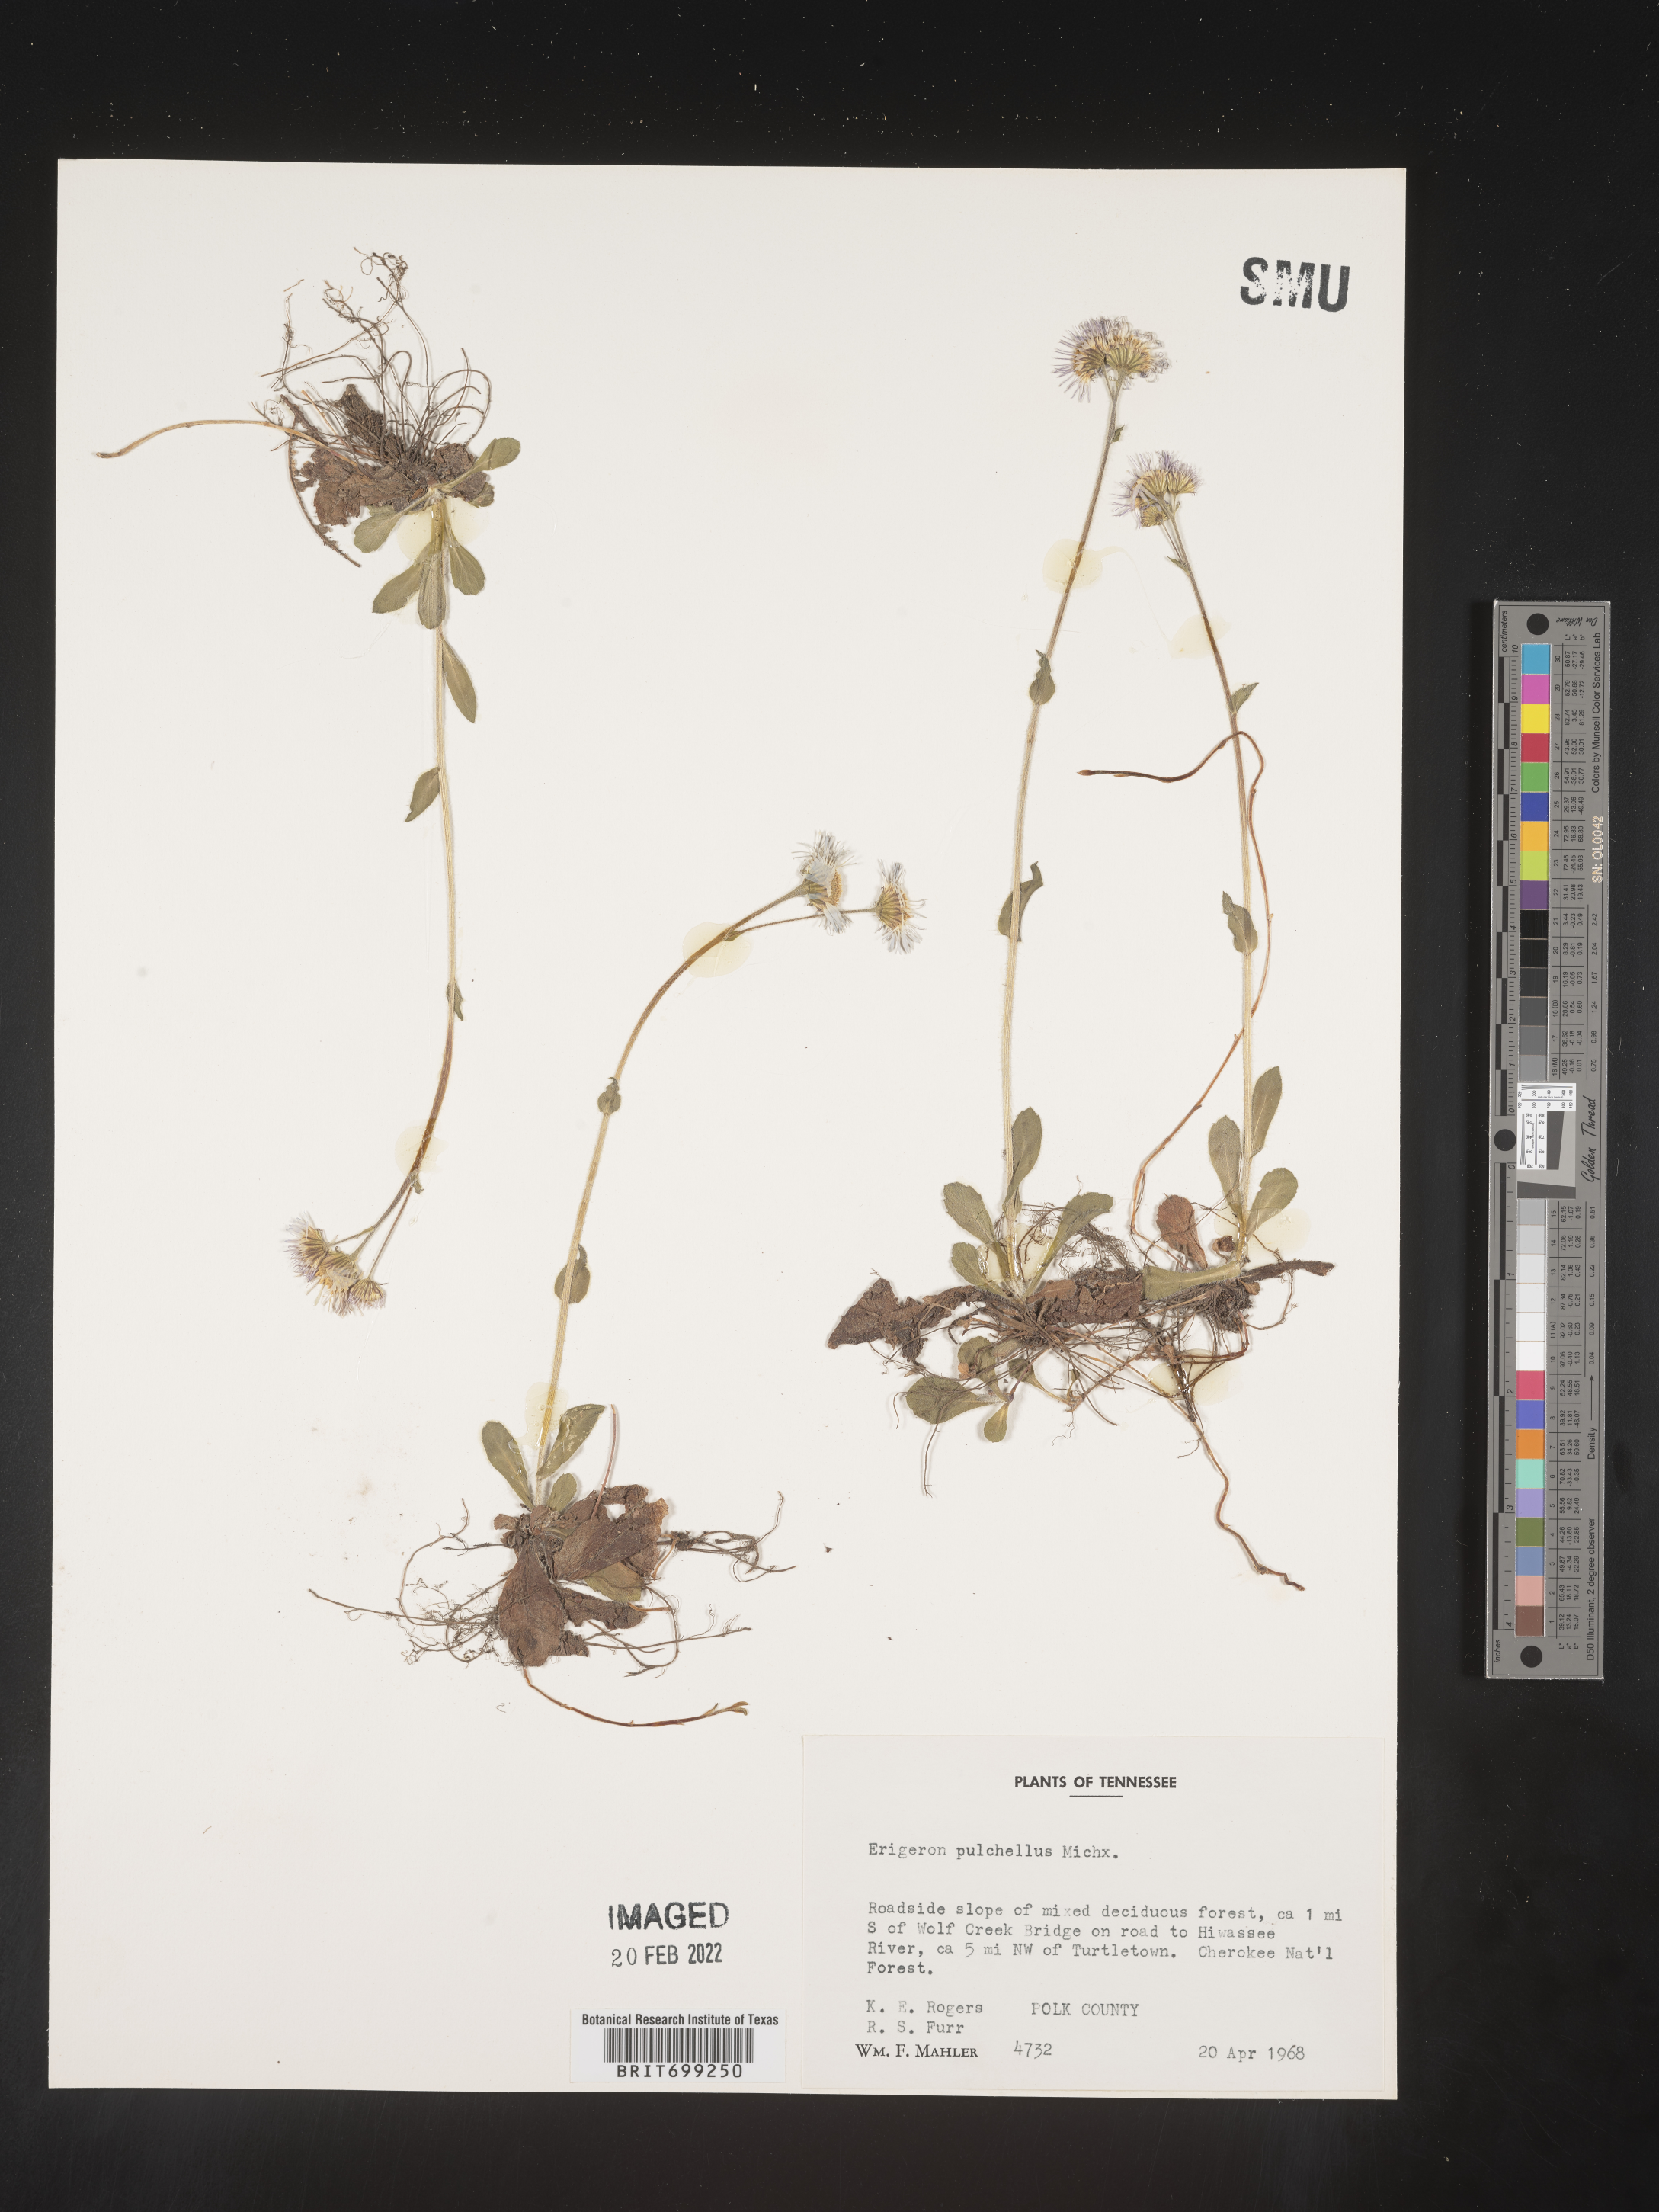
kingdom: Plantae
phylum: Tracheophyta
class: Magnoliopsida
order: Asterales
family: Asteraceae
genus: Erigeron
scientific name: Erigeron pulchellus
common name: Hairy fleabane
